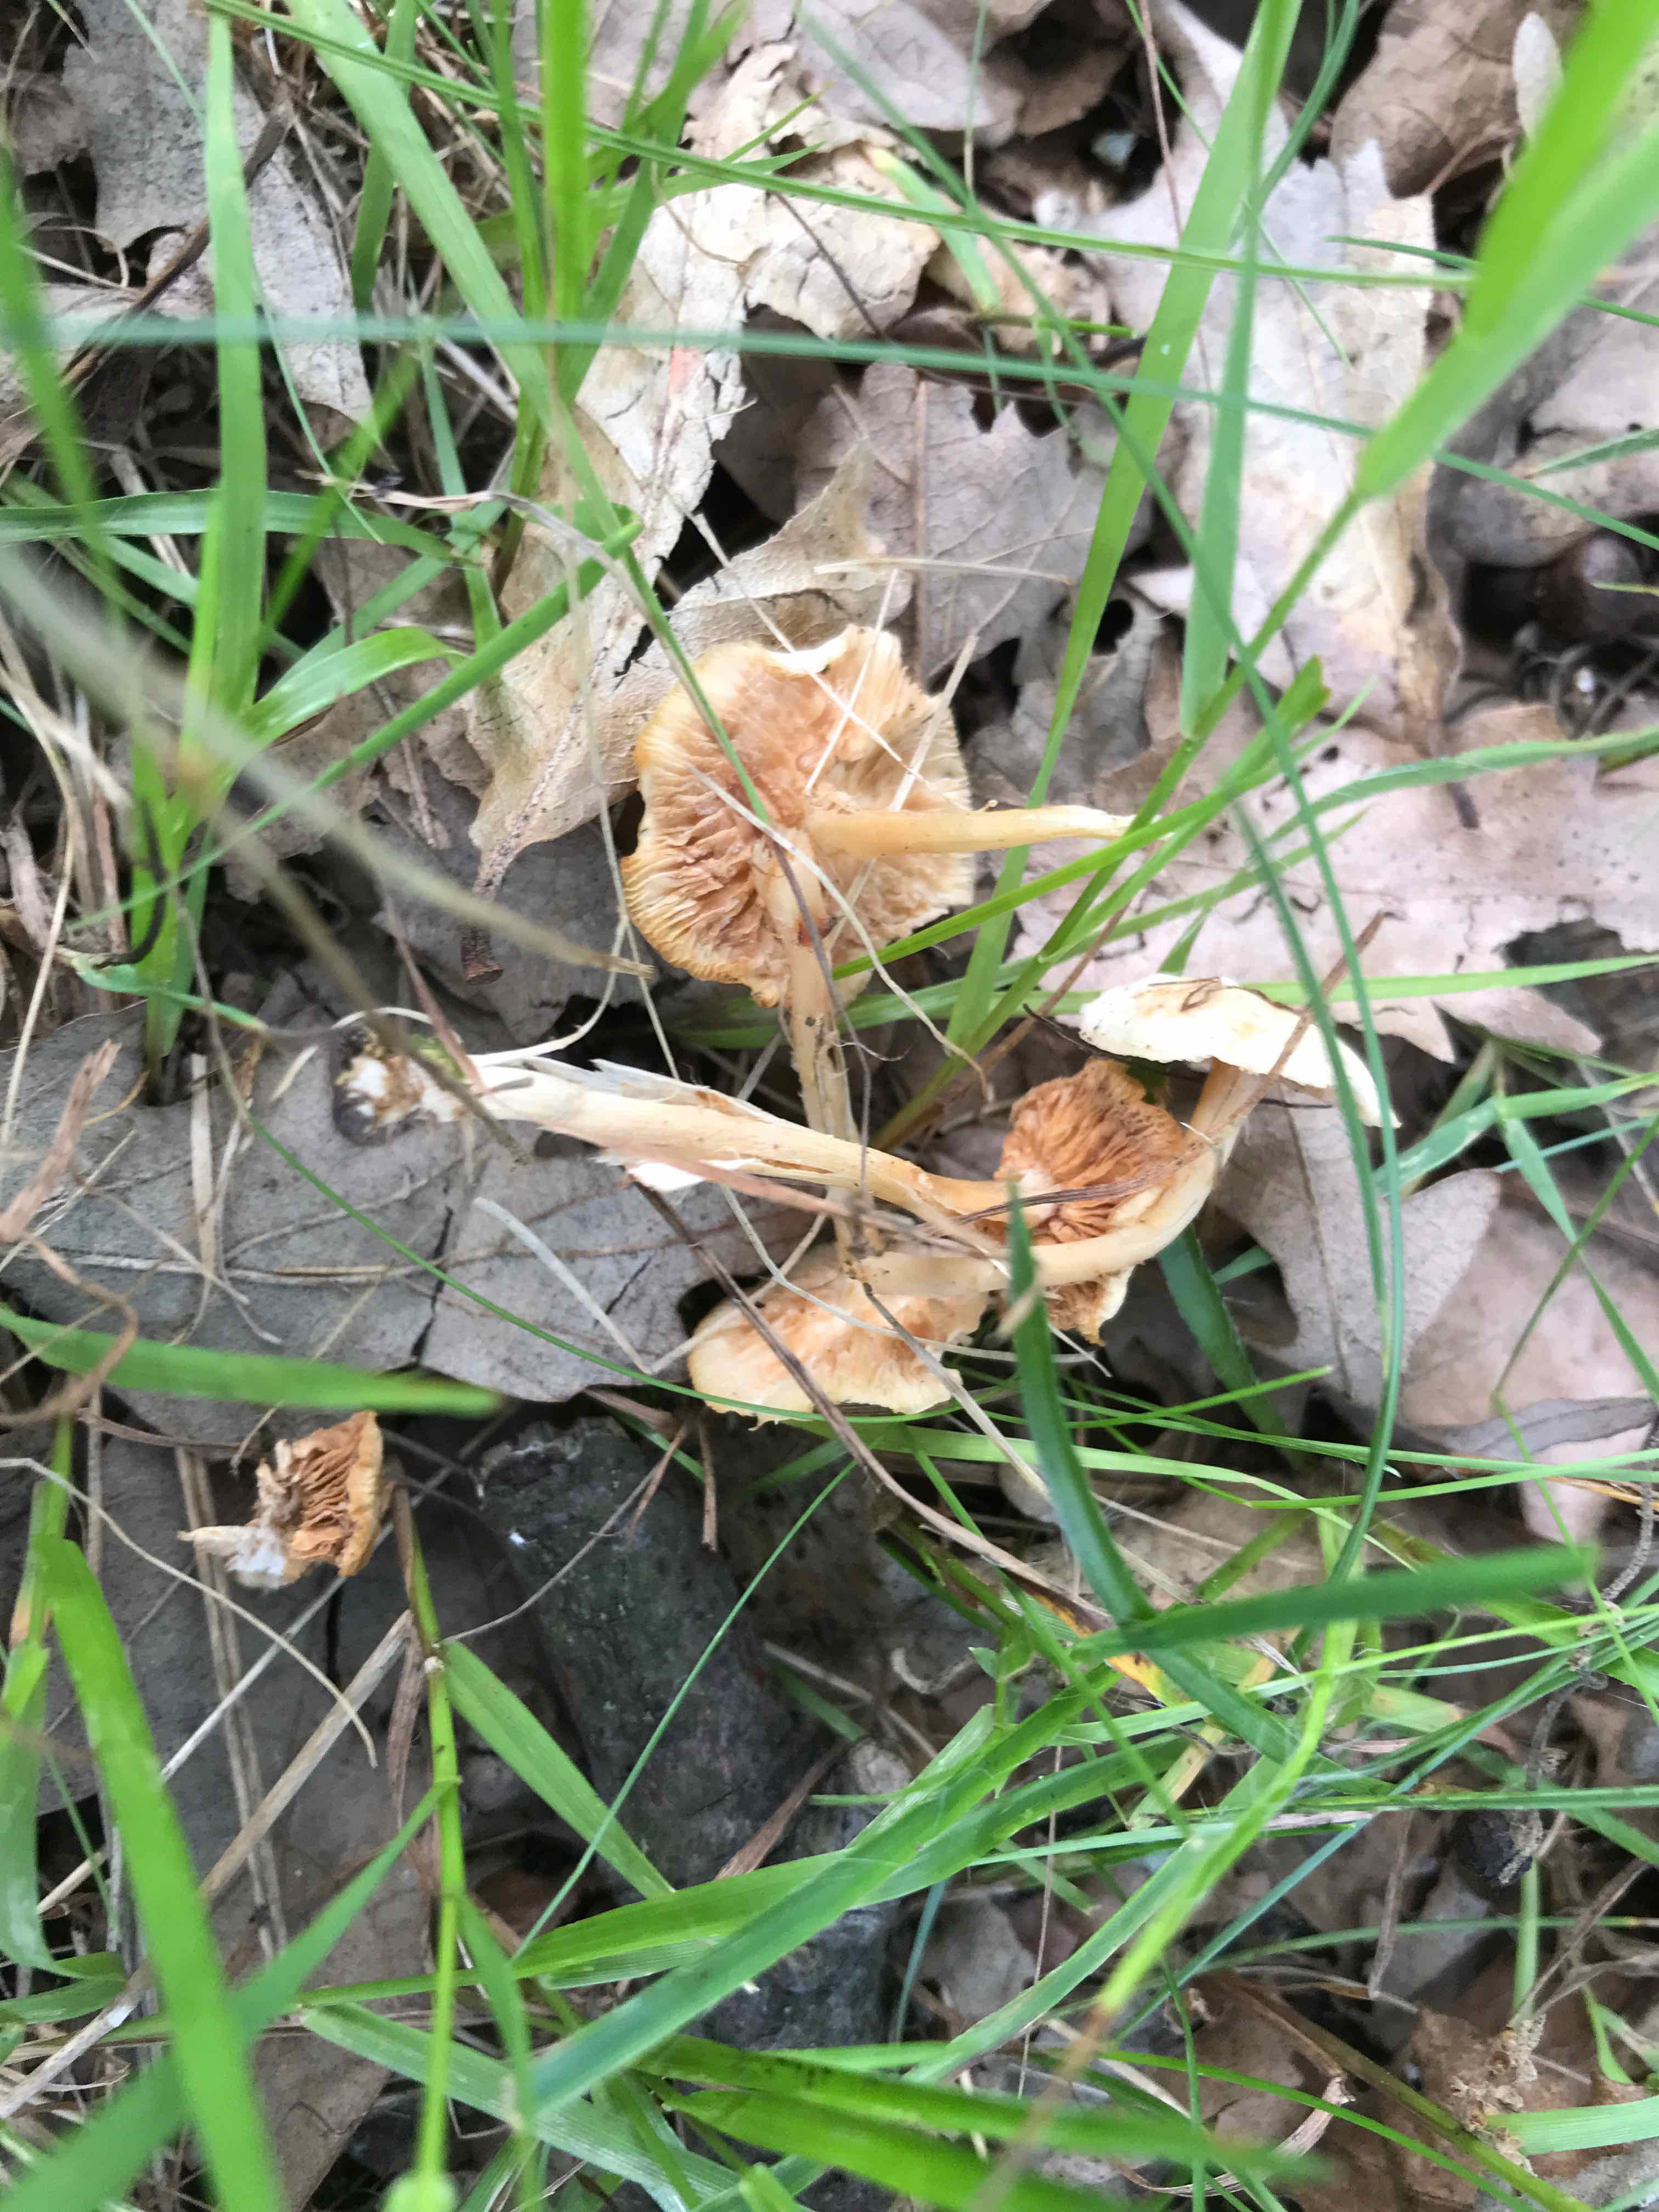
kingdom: Fungi
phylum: Basidiomycota
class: Agaricomycetes
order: Agaricales
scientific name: Agaricales
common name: champignonordenen
